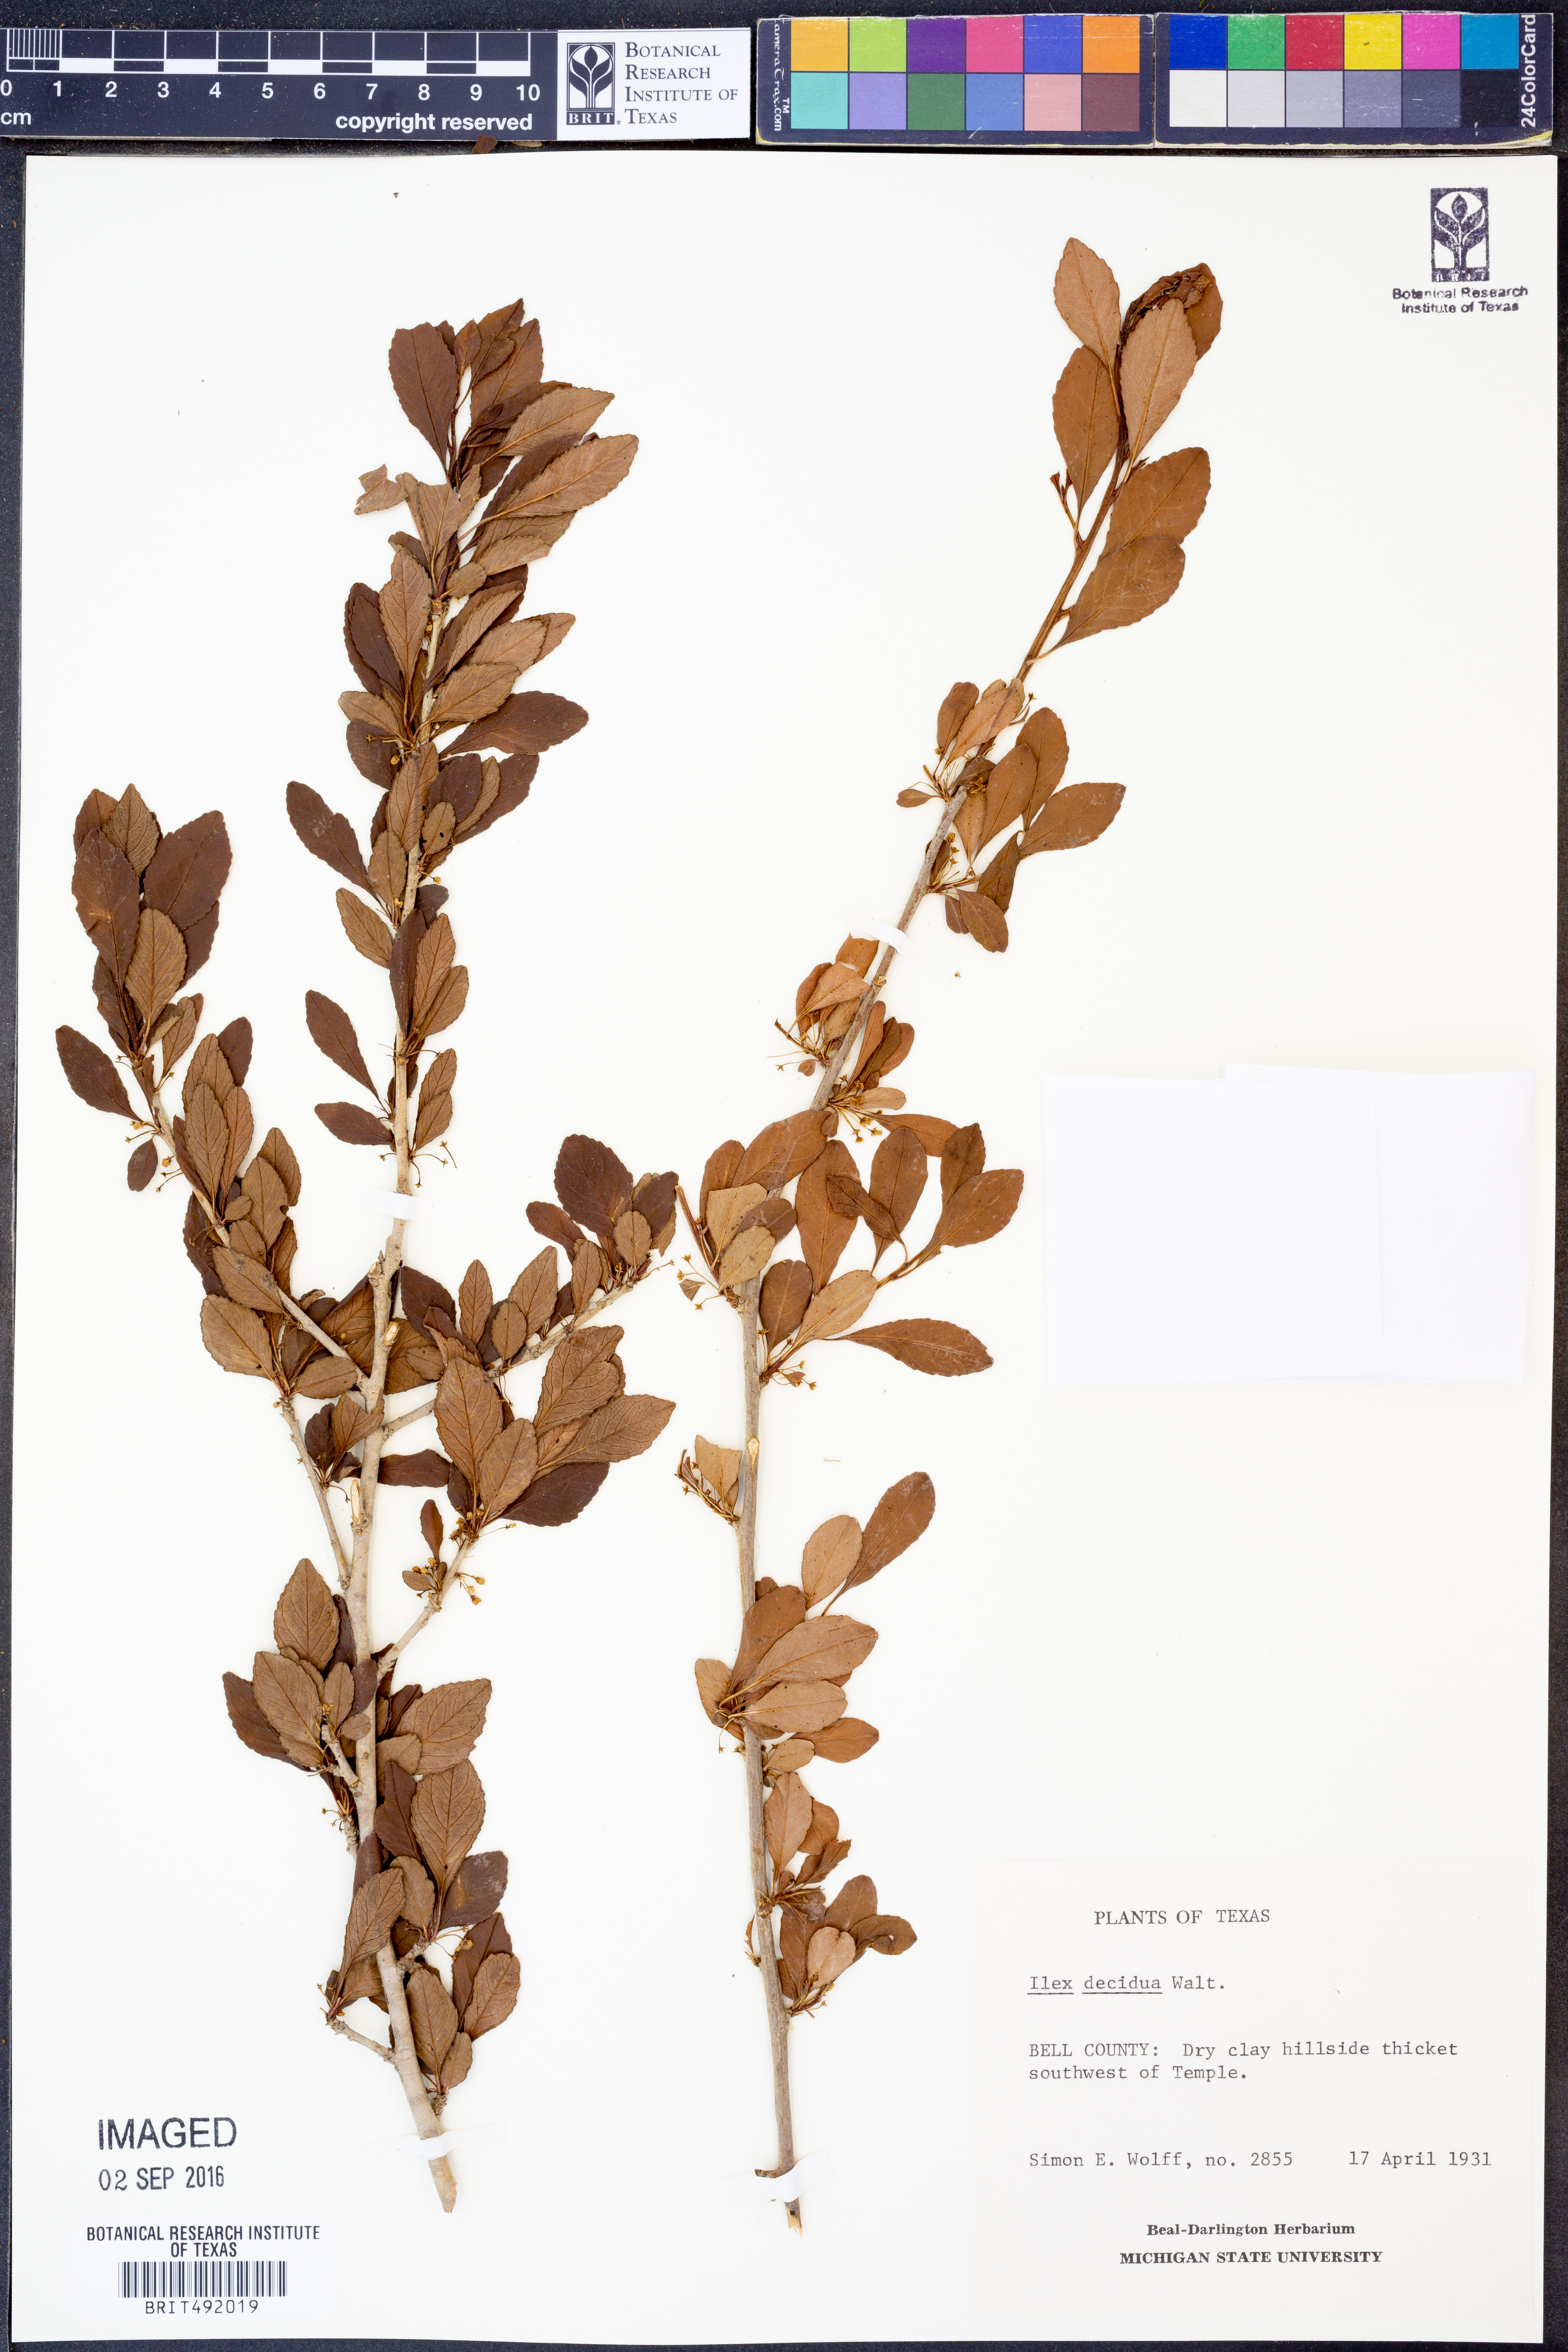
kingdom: Plantae
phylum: Tracheophyta
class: Magnoliopsida
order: Aquifoliales
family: Aquifoliaceae
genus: Ilex
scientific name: Ilex decidua
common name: Possum-haw
